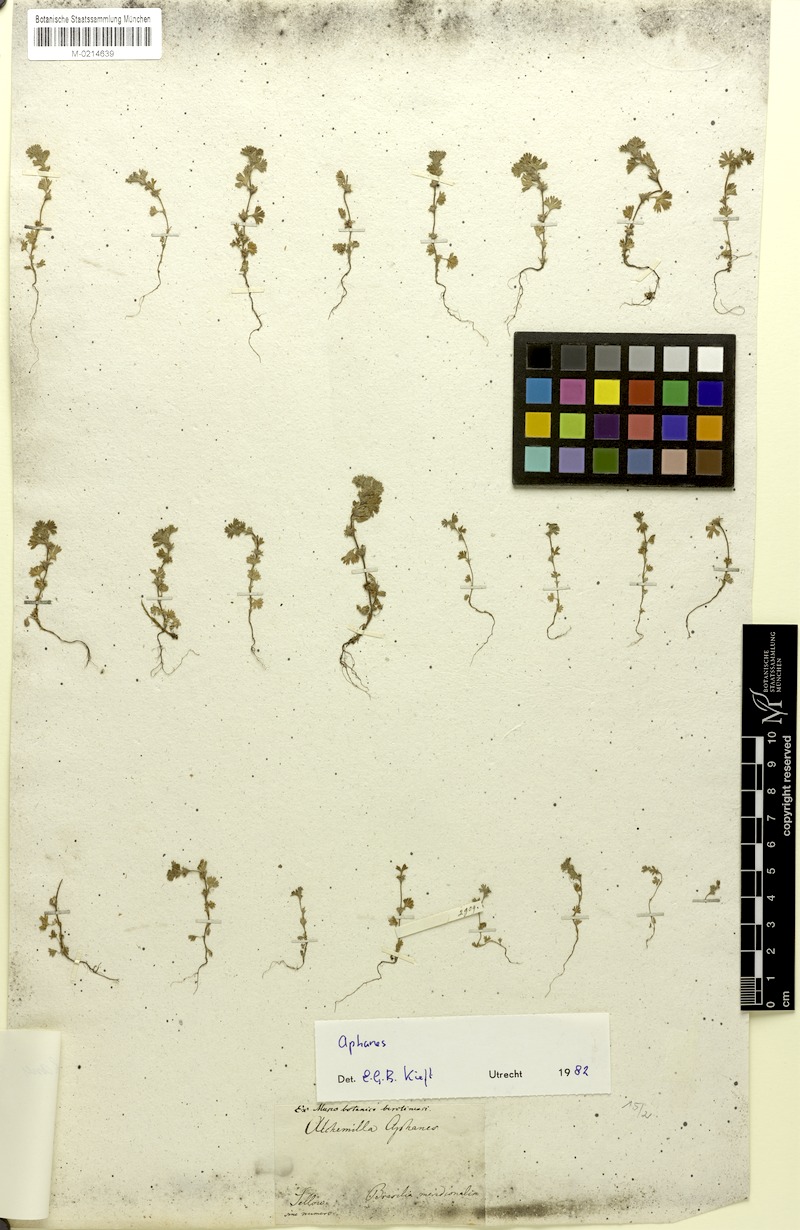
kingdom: Plantae
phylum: Tracheophyta
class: Magnoliopsida
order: Rosales
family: Rosaceae
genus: Aphanes
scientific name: Aphanes parodii
